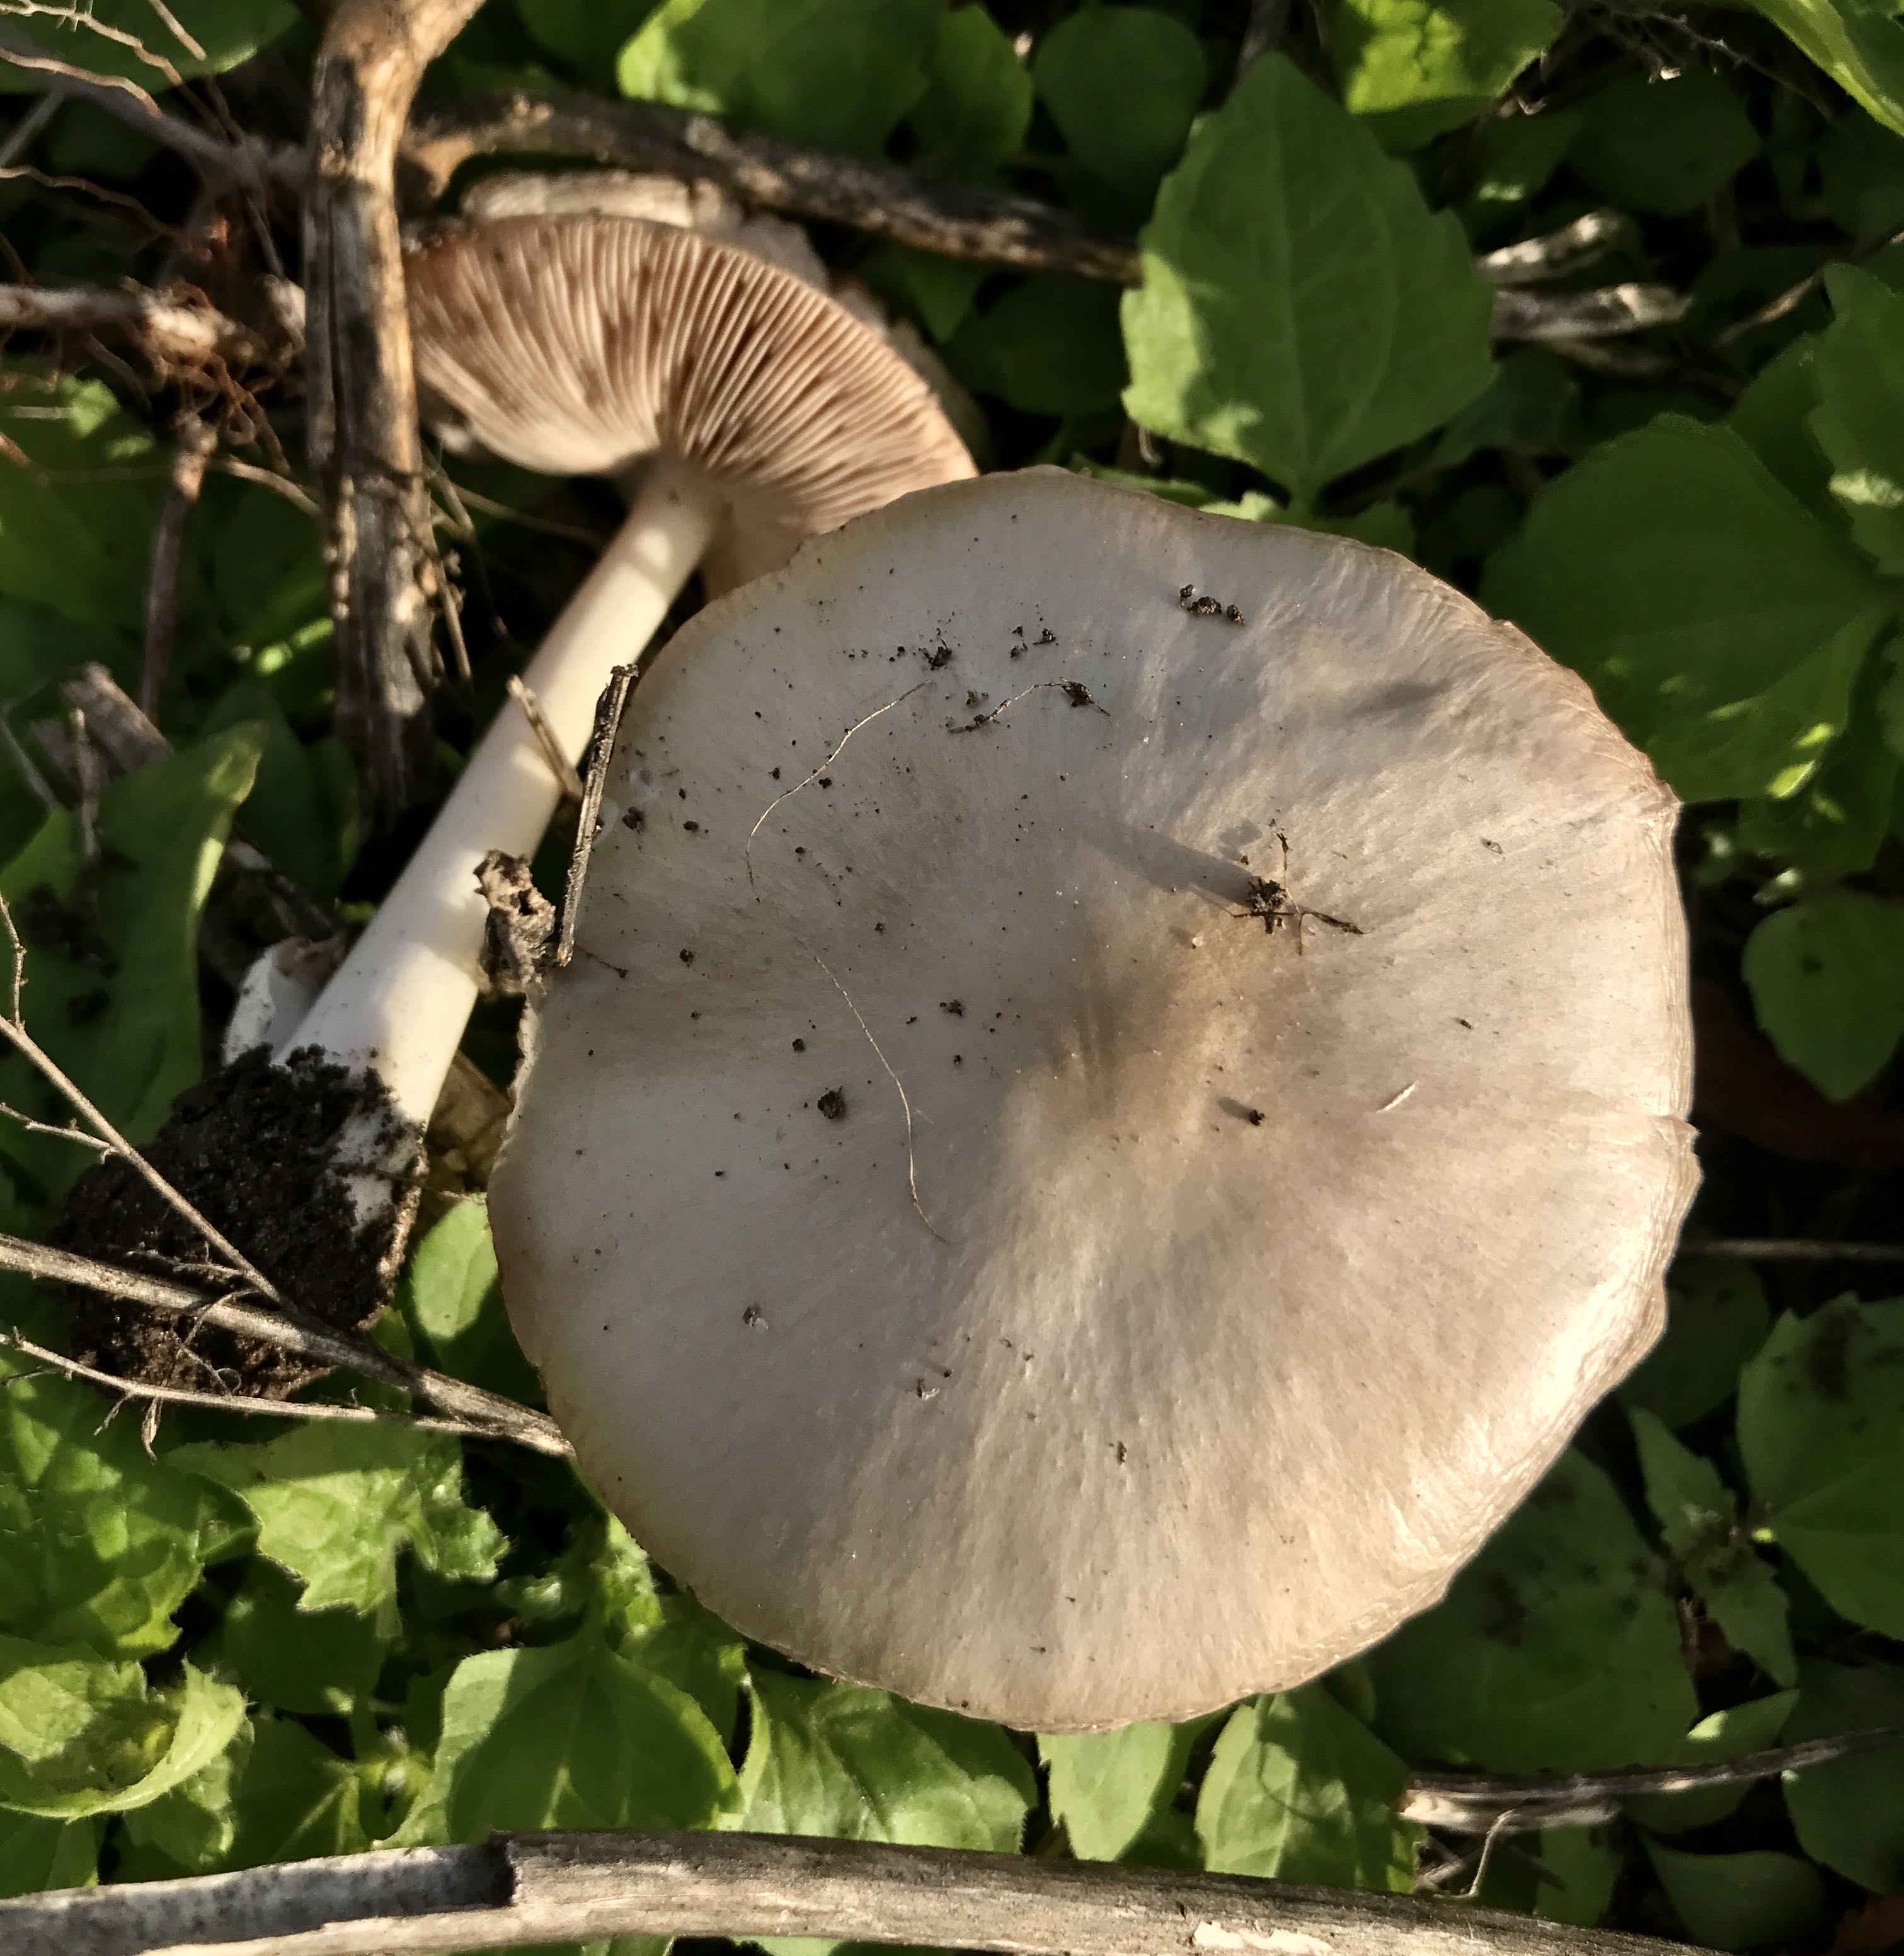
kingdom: Fungi
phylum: Basidiomycota
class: Agaricomycetes
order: Agaricales
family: Pluteaceae
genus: Volvopluteus
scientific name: Volvopluteus gloiocephalus
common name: høj posesvamp
